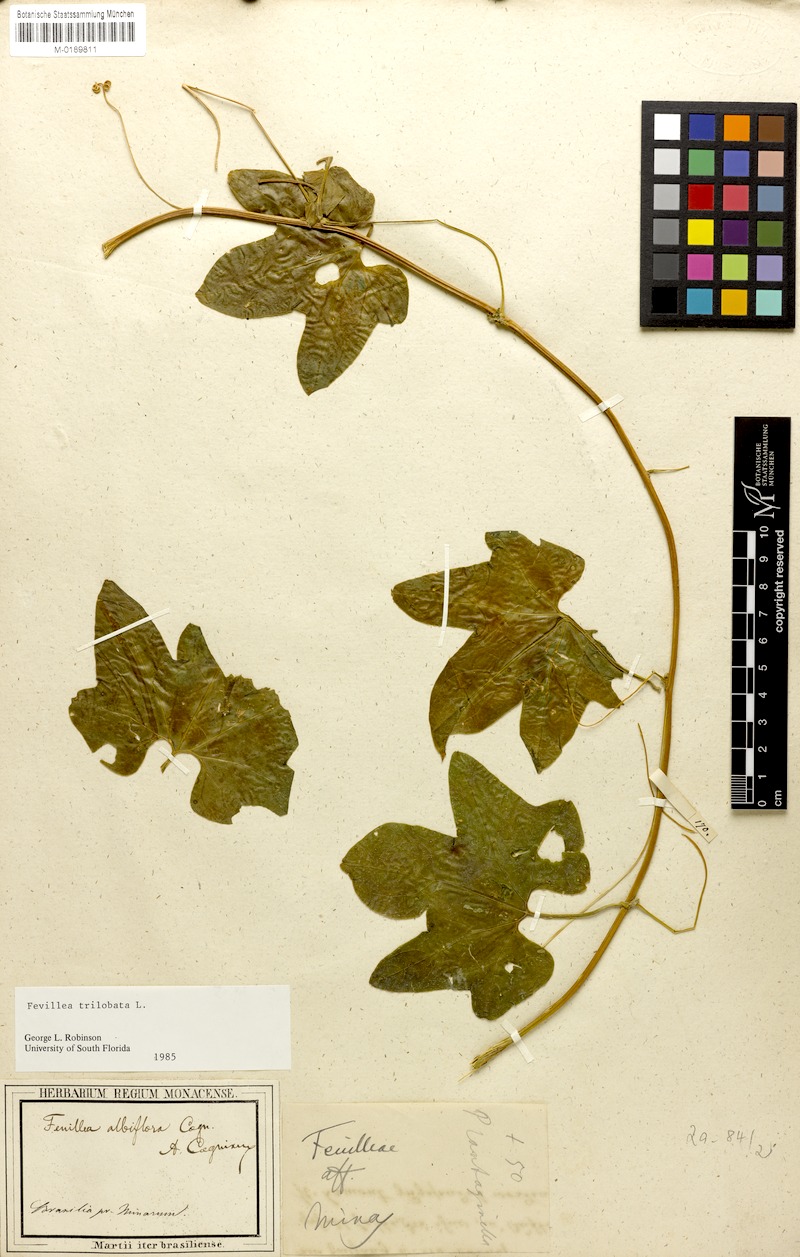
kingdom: Plantae
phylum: Tracheophyta
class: Magnoliopsida
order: Cucurbitales
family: Cucurbitaceae
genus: Fevillea
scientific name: Fevillea trilobata
